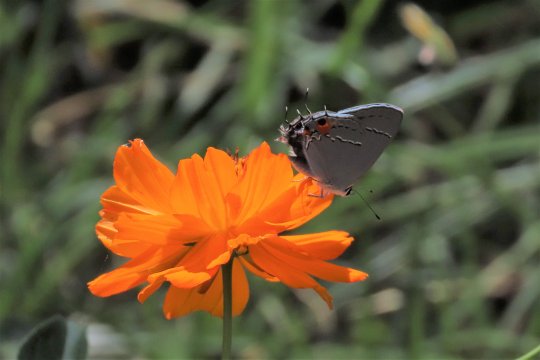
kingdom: Animalia
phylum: Arthropoda
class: Insecta
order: Lepidoptera
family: Lycaenidae
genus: Strymon
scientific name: Strymon melinus
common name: Gray Hairstreak
